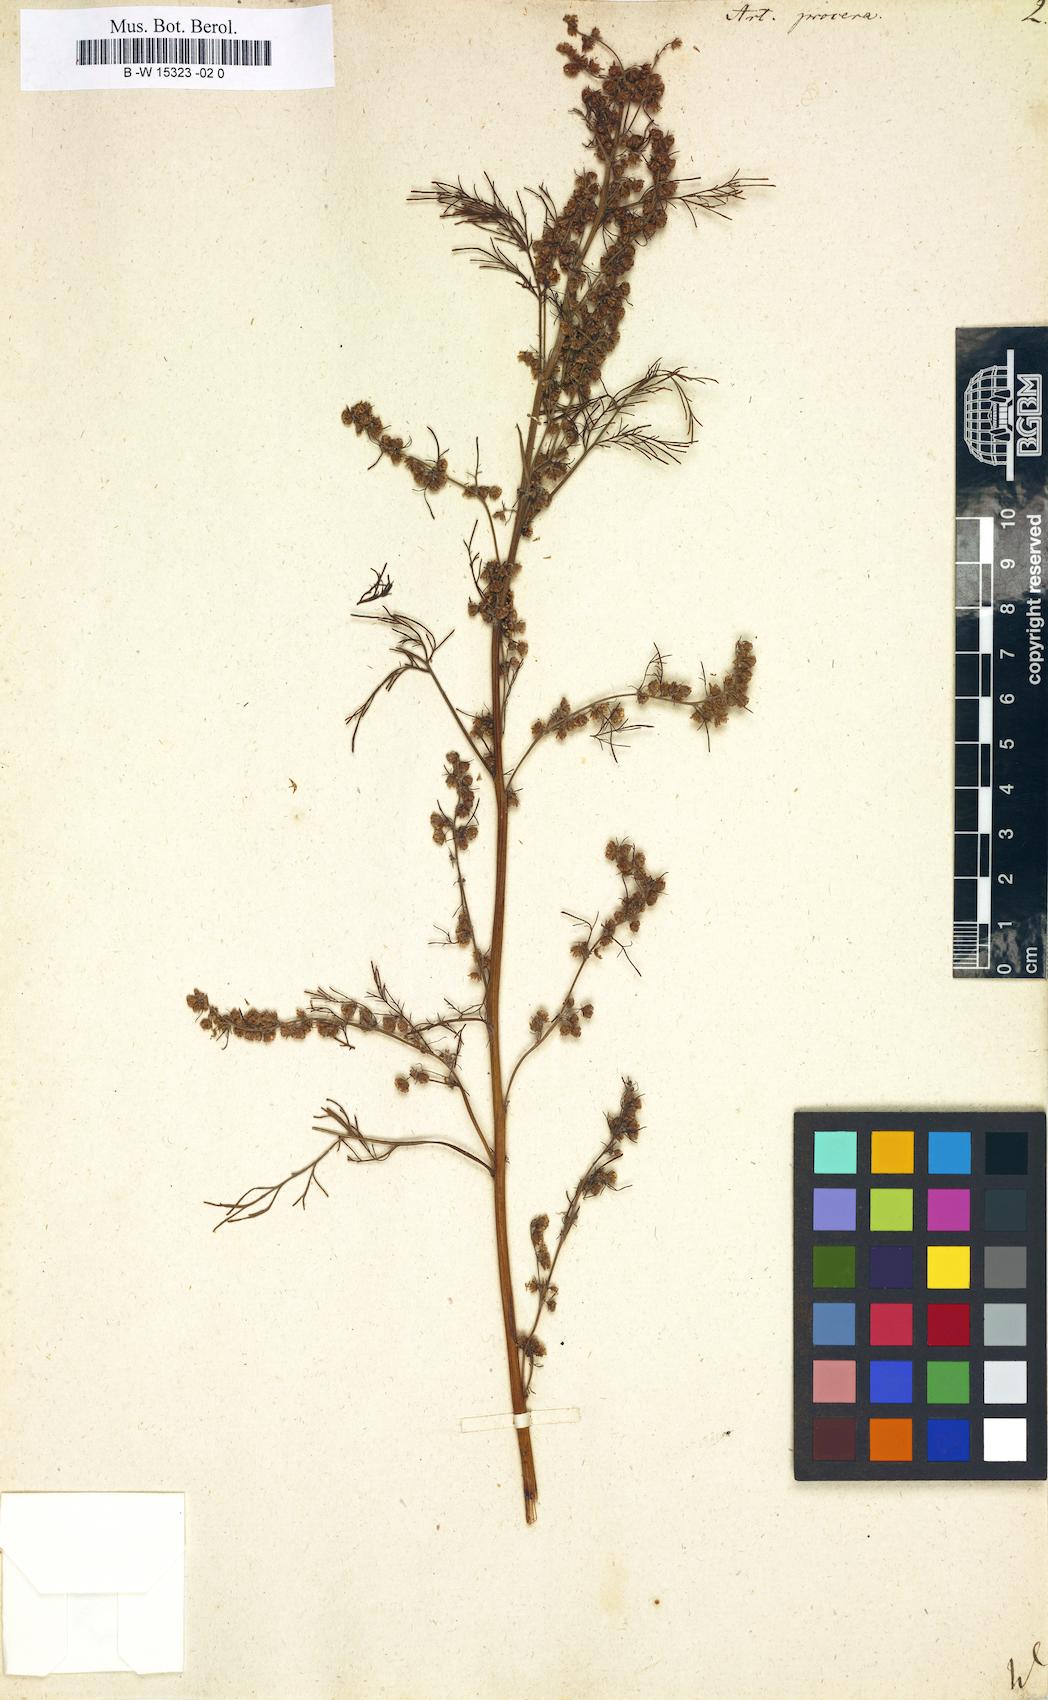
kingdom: Plantae
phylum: Tracheophyta
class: Magnoliopsida
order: Asterales
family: Asteraceae
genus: Artemisia
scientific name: Artemisia abrotanum
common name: Southernwood
